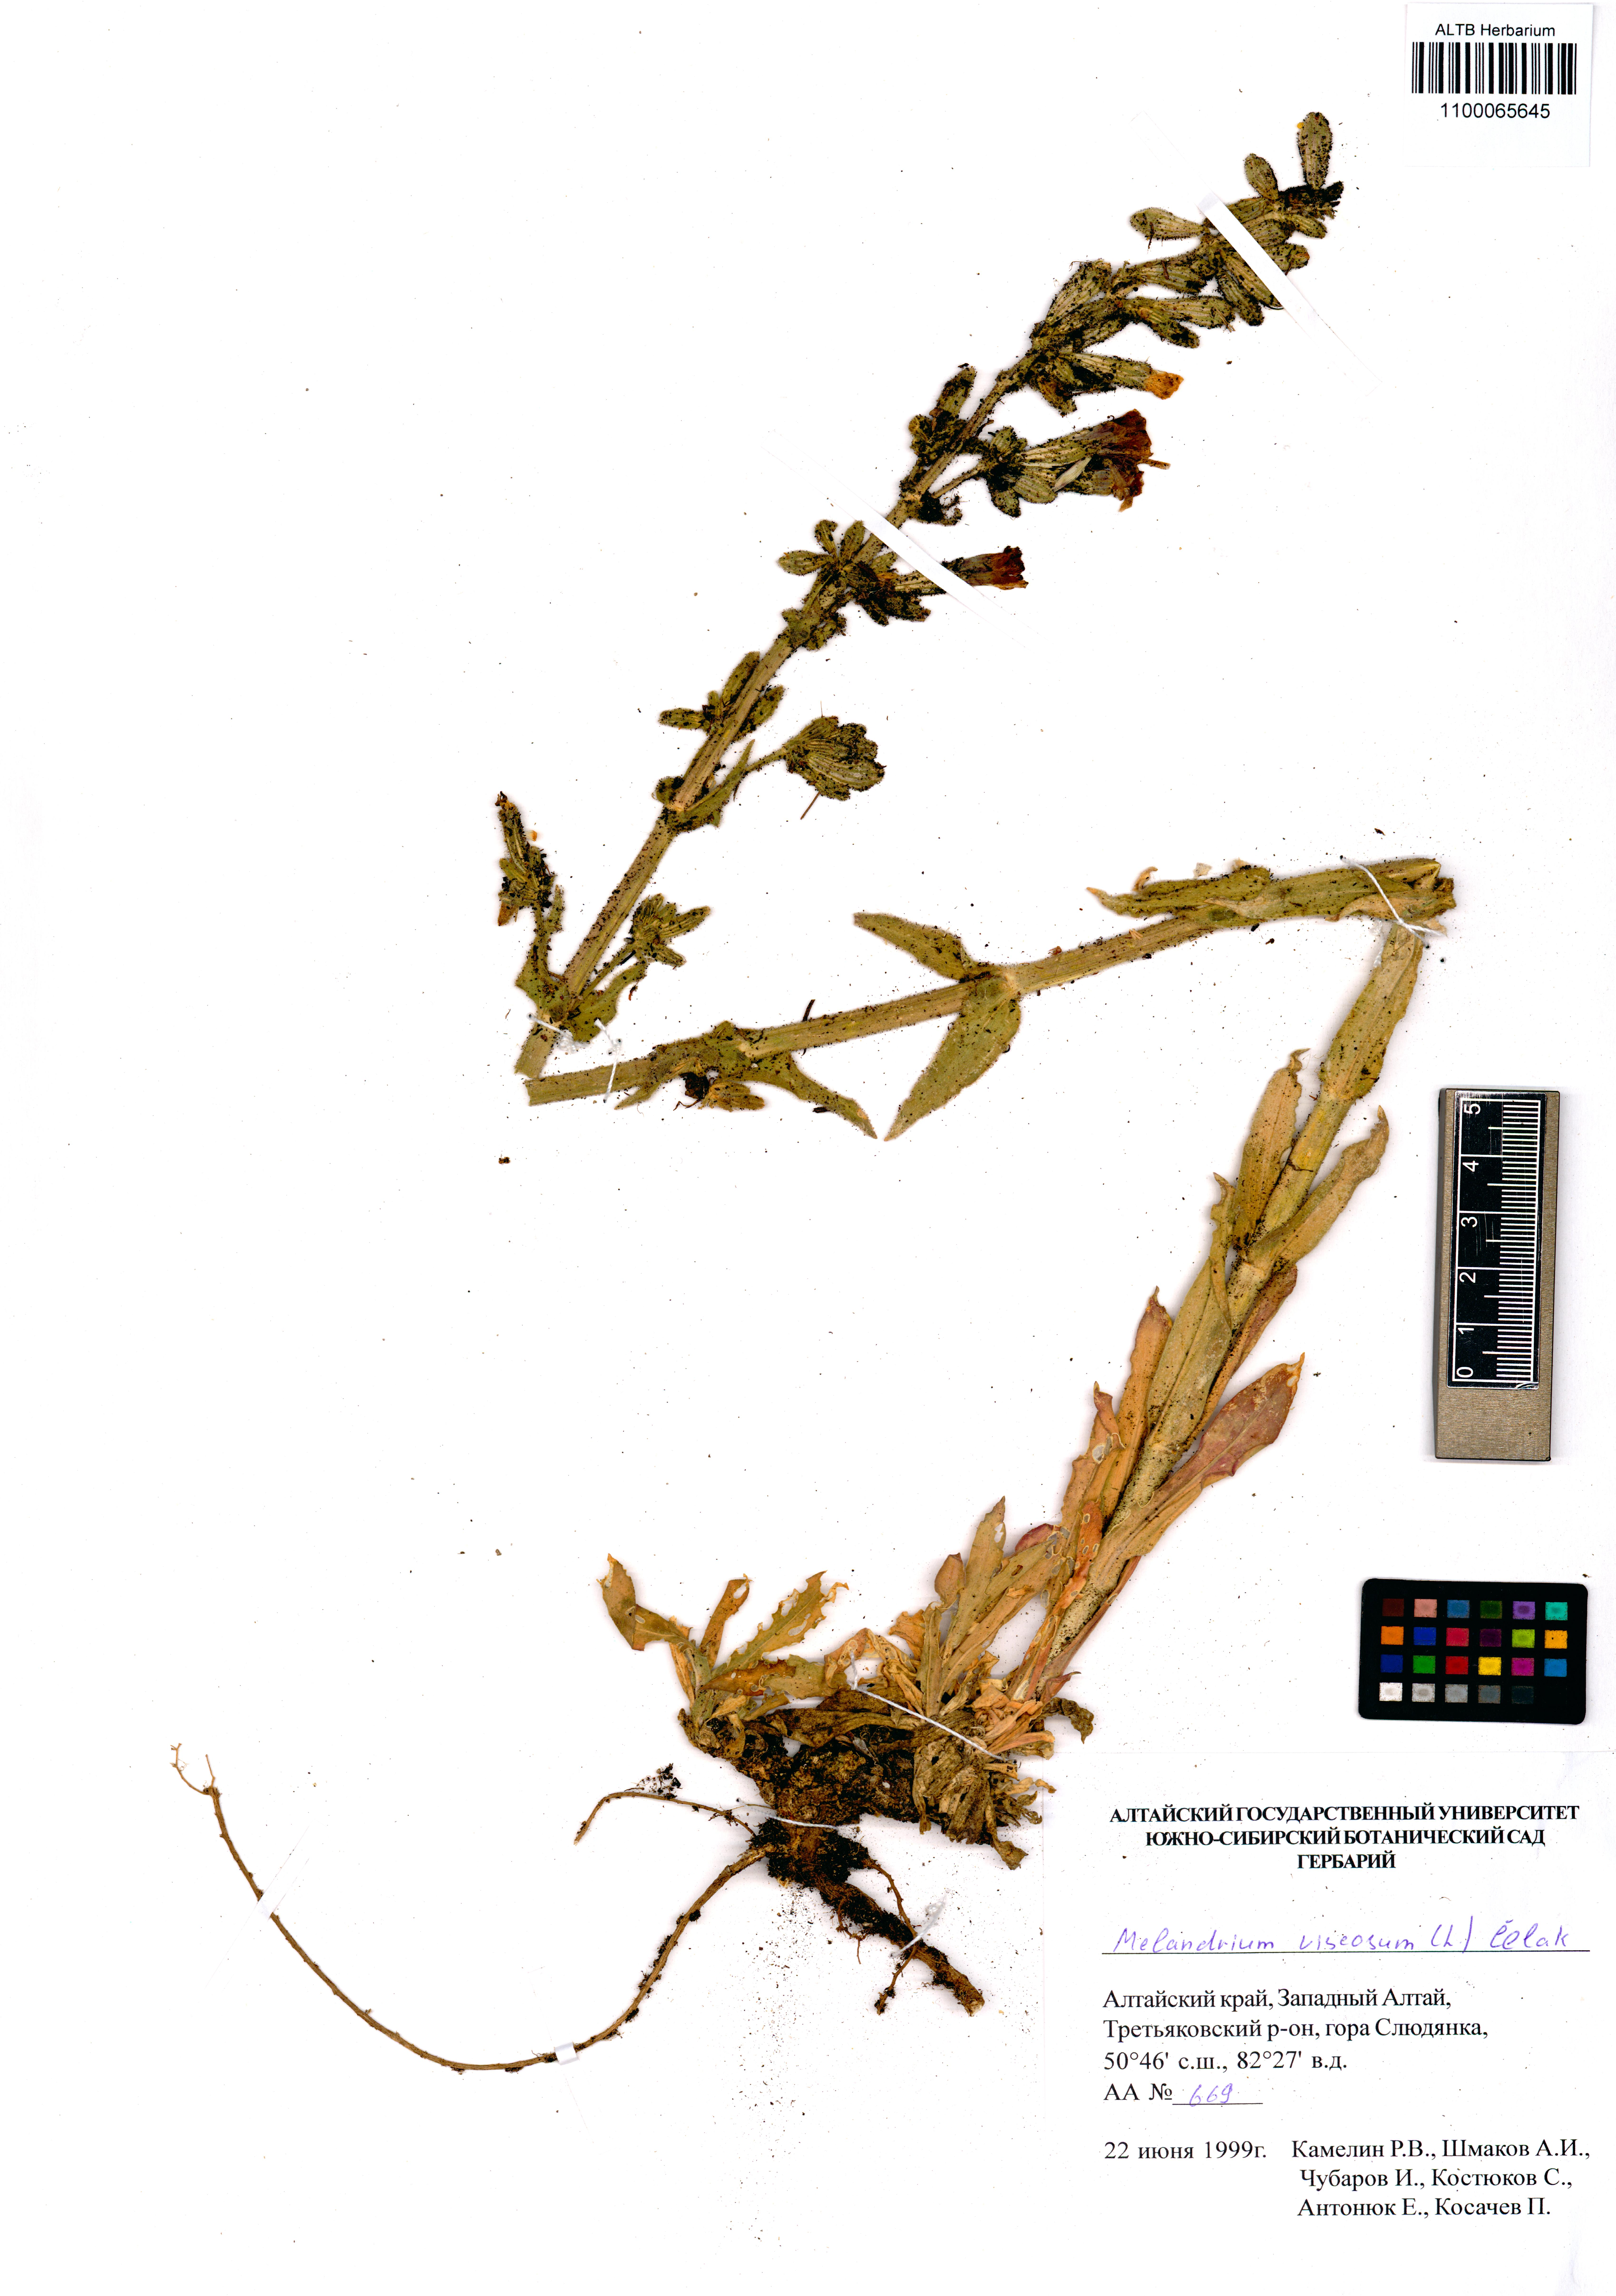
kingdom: Plantae
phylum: Tracheophyta
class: Magnoliopsida
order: Caryophyllales
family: Caryophyllaceae
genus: Silene
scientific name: Silene viscosa
